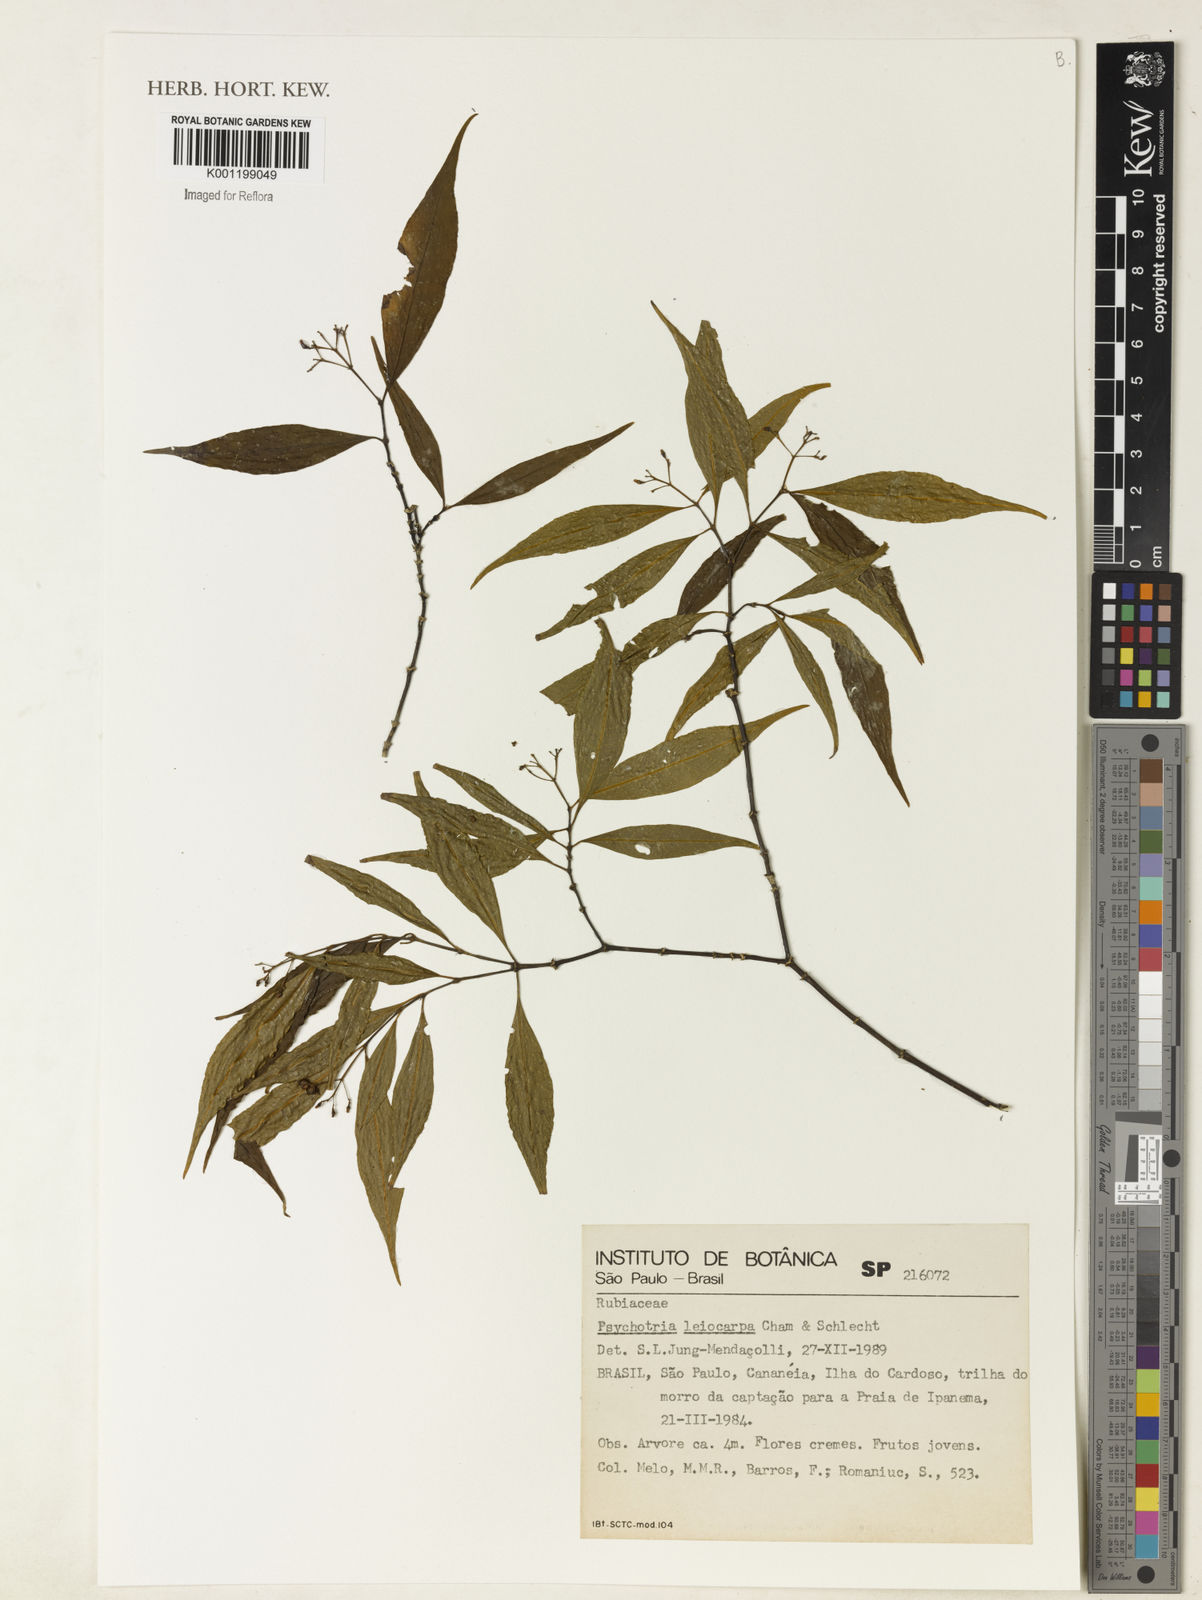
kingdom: Plantae
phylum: Tracheophyta
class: Magnoliopsida
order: Gentianales
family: Rubiaceae
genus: Psychotria
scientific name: Psychotria leiocarpa
